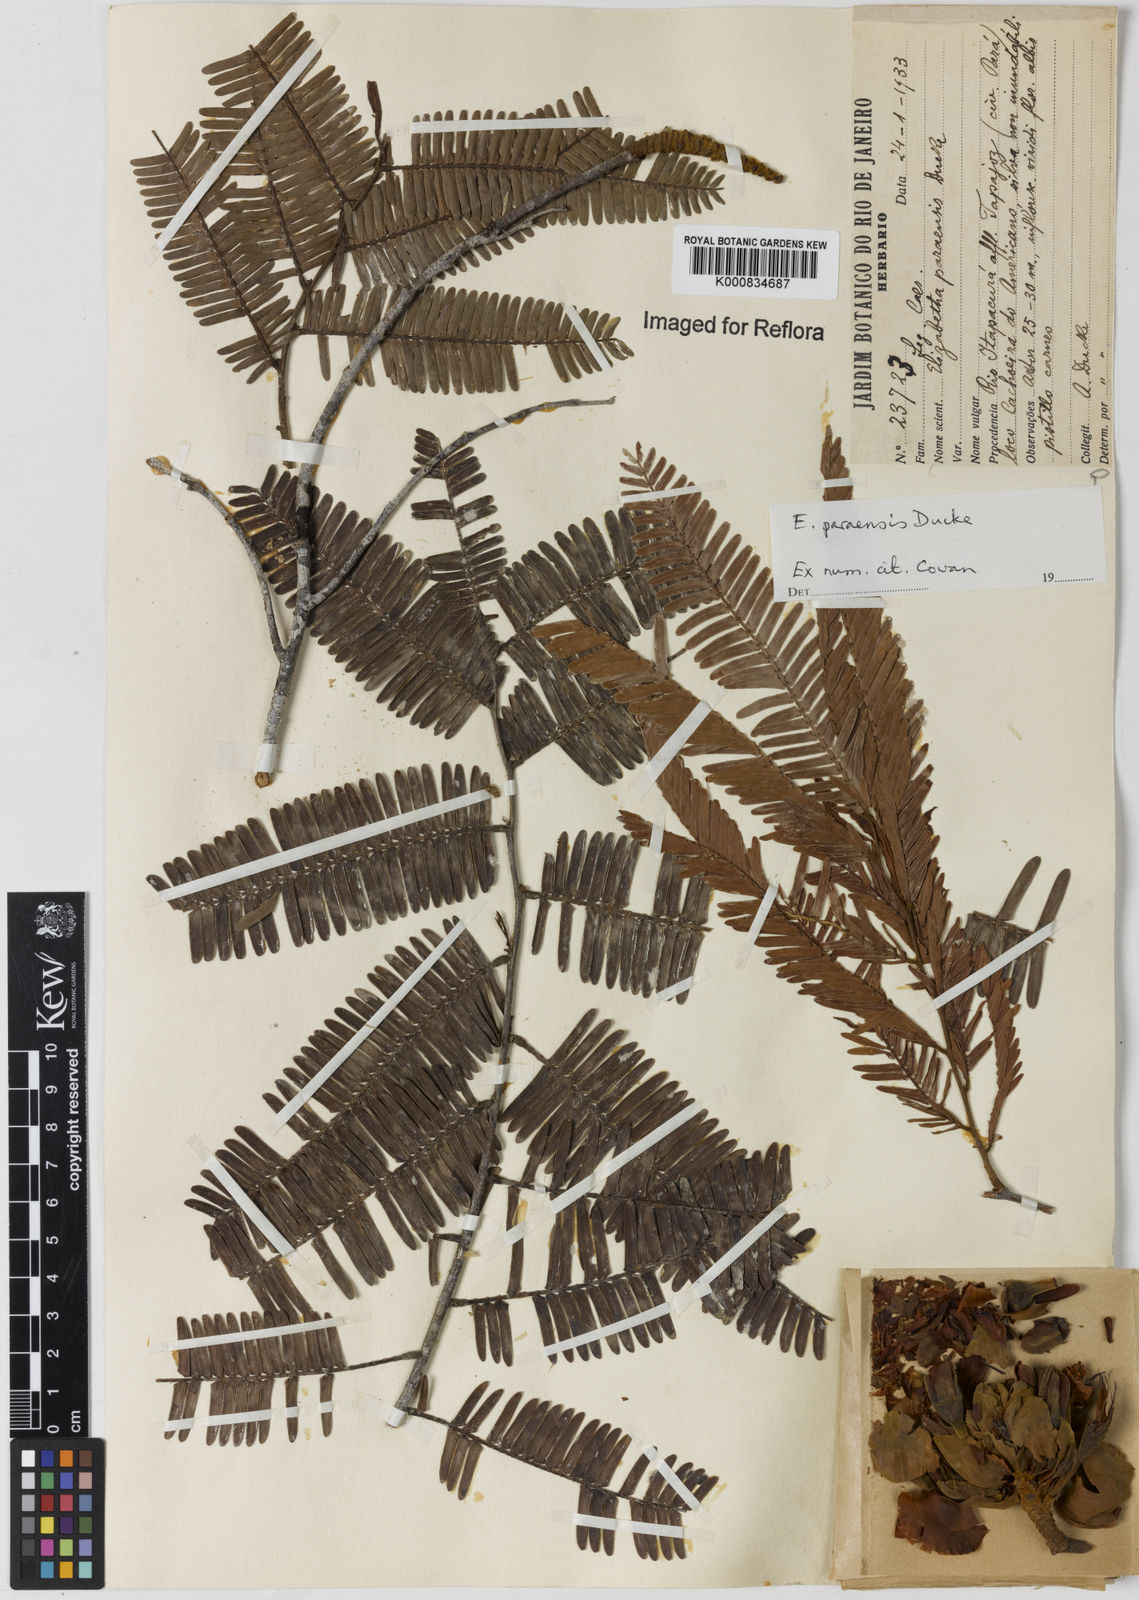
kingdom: Plantae
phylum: Tracheophyta
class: Magnoliopsida
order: Fabales
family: Fabaceae
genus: Paloue
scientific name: Paloue paraensis
